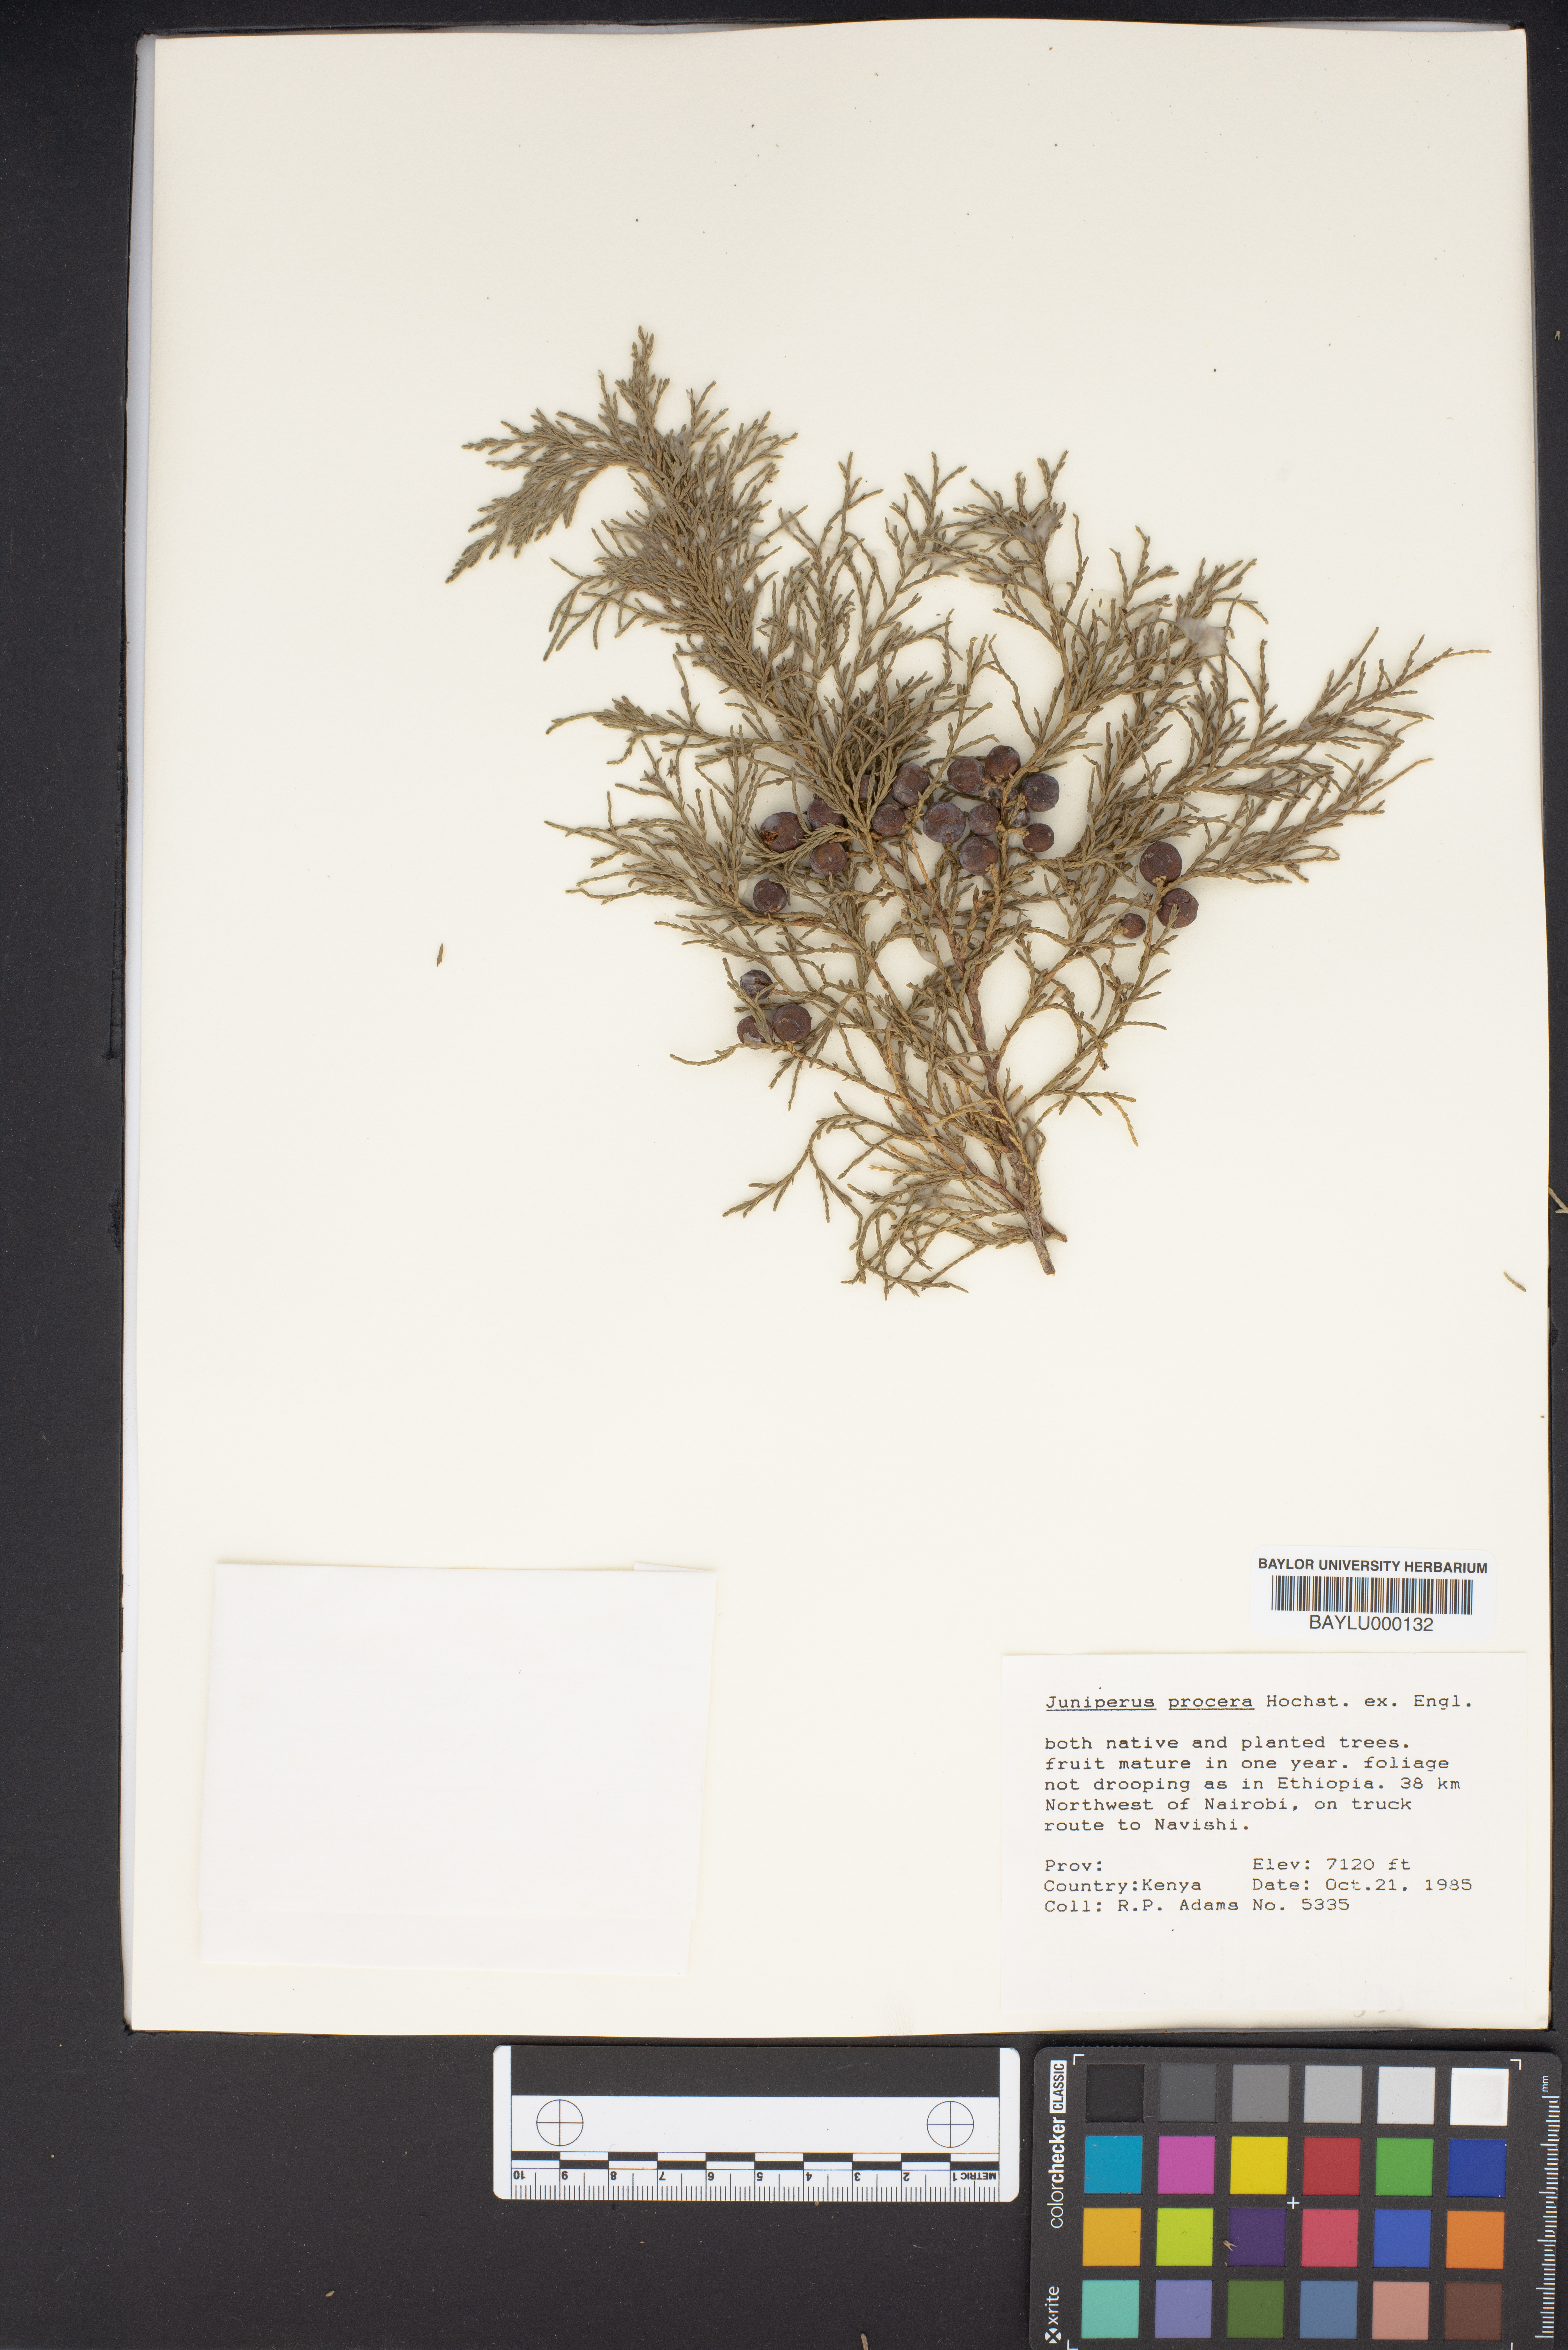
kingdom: Plantae
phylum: Tracheophyta
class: Pinopsida
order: Pinales
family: Cupressaceae
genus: Juniperus
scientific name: Juniperus procera
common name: African juniper
